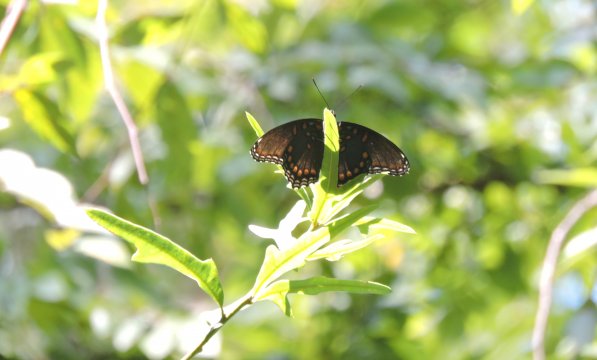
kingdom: Animalia
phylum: Arthropoda
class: Insecta
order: Lepidoptera
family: Nymphalidae
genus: Limenitis
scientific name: Limenitis arthemis
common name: Red-spotted Admiral
